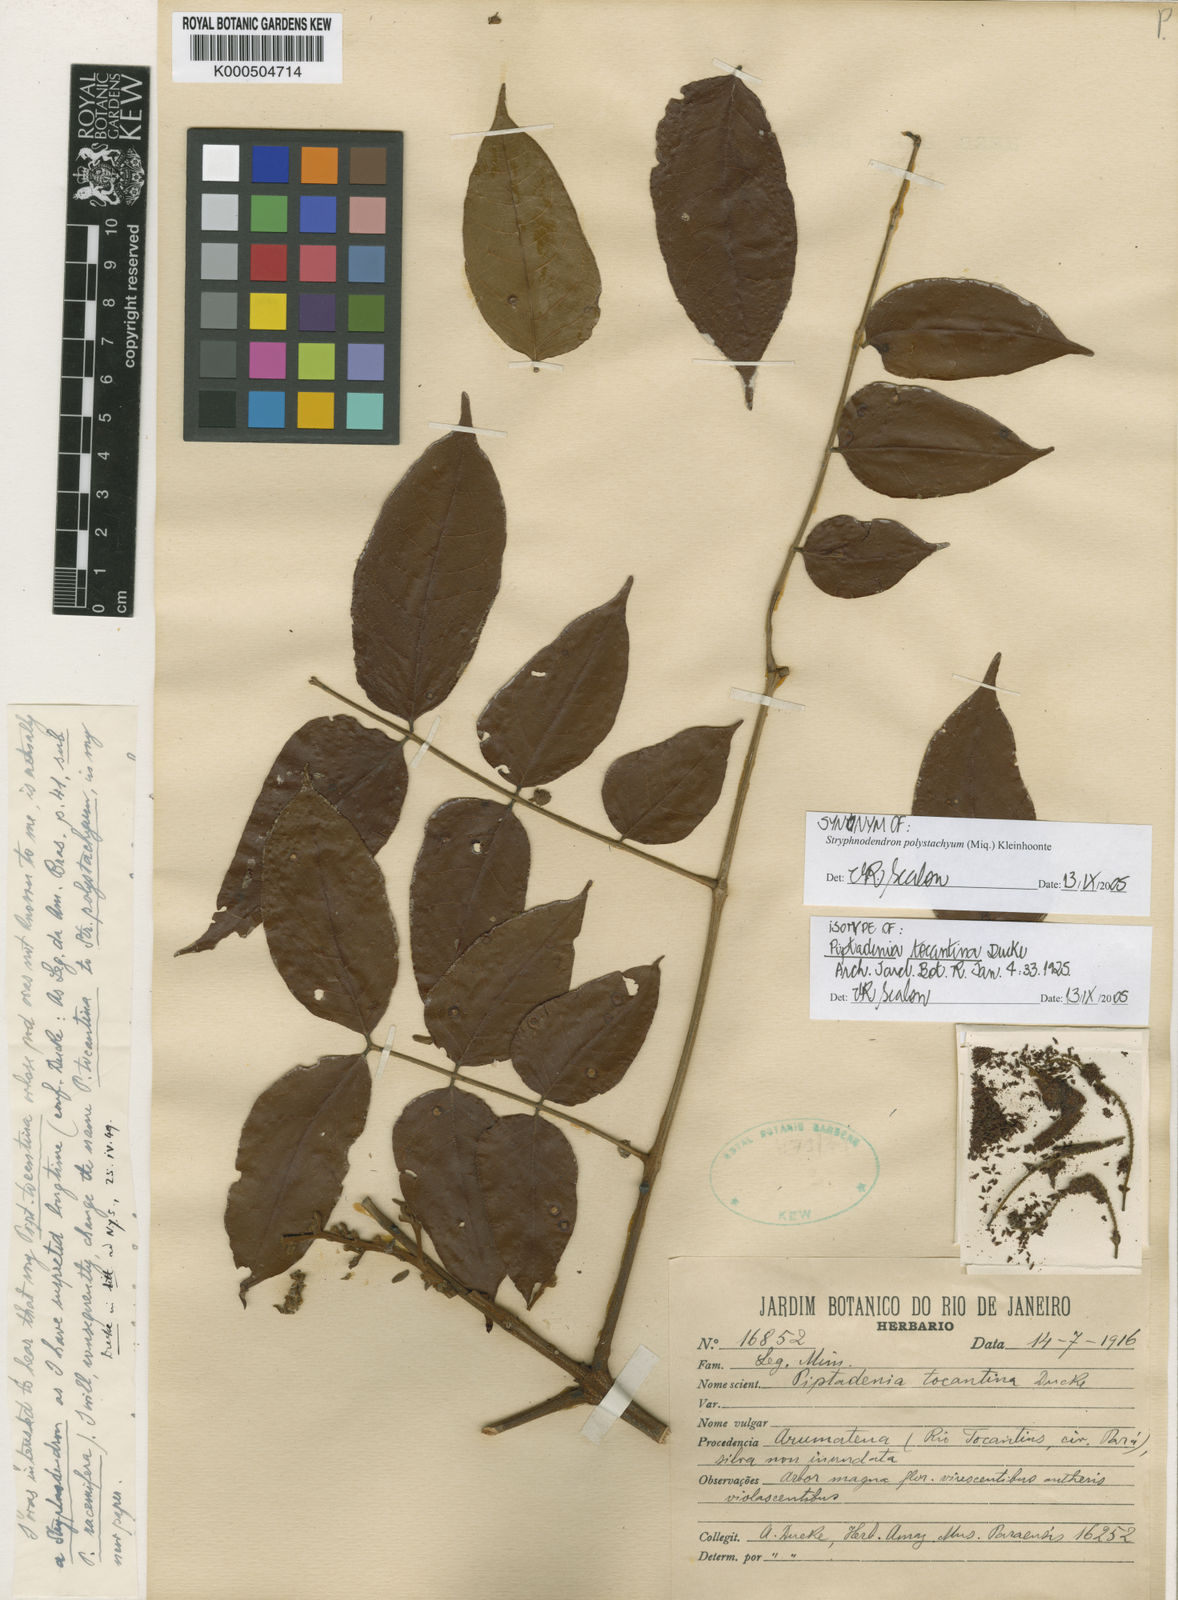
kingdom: Plantae
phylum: Tracheophyta
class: Magnoliopsida
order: Fabales
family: Fabaceae
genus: Stryphnodendron
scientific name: Stryphnodendron polystachyum
